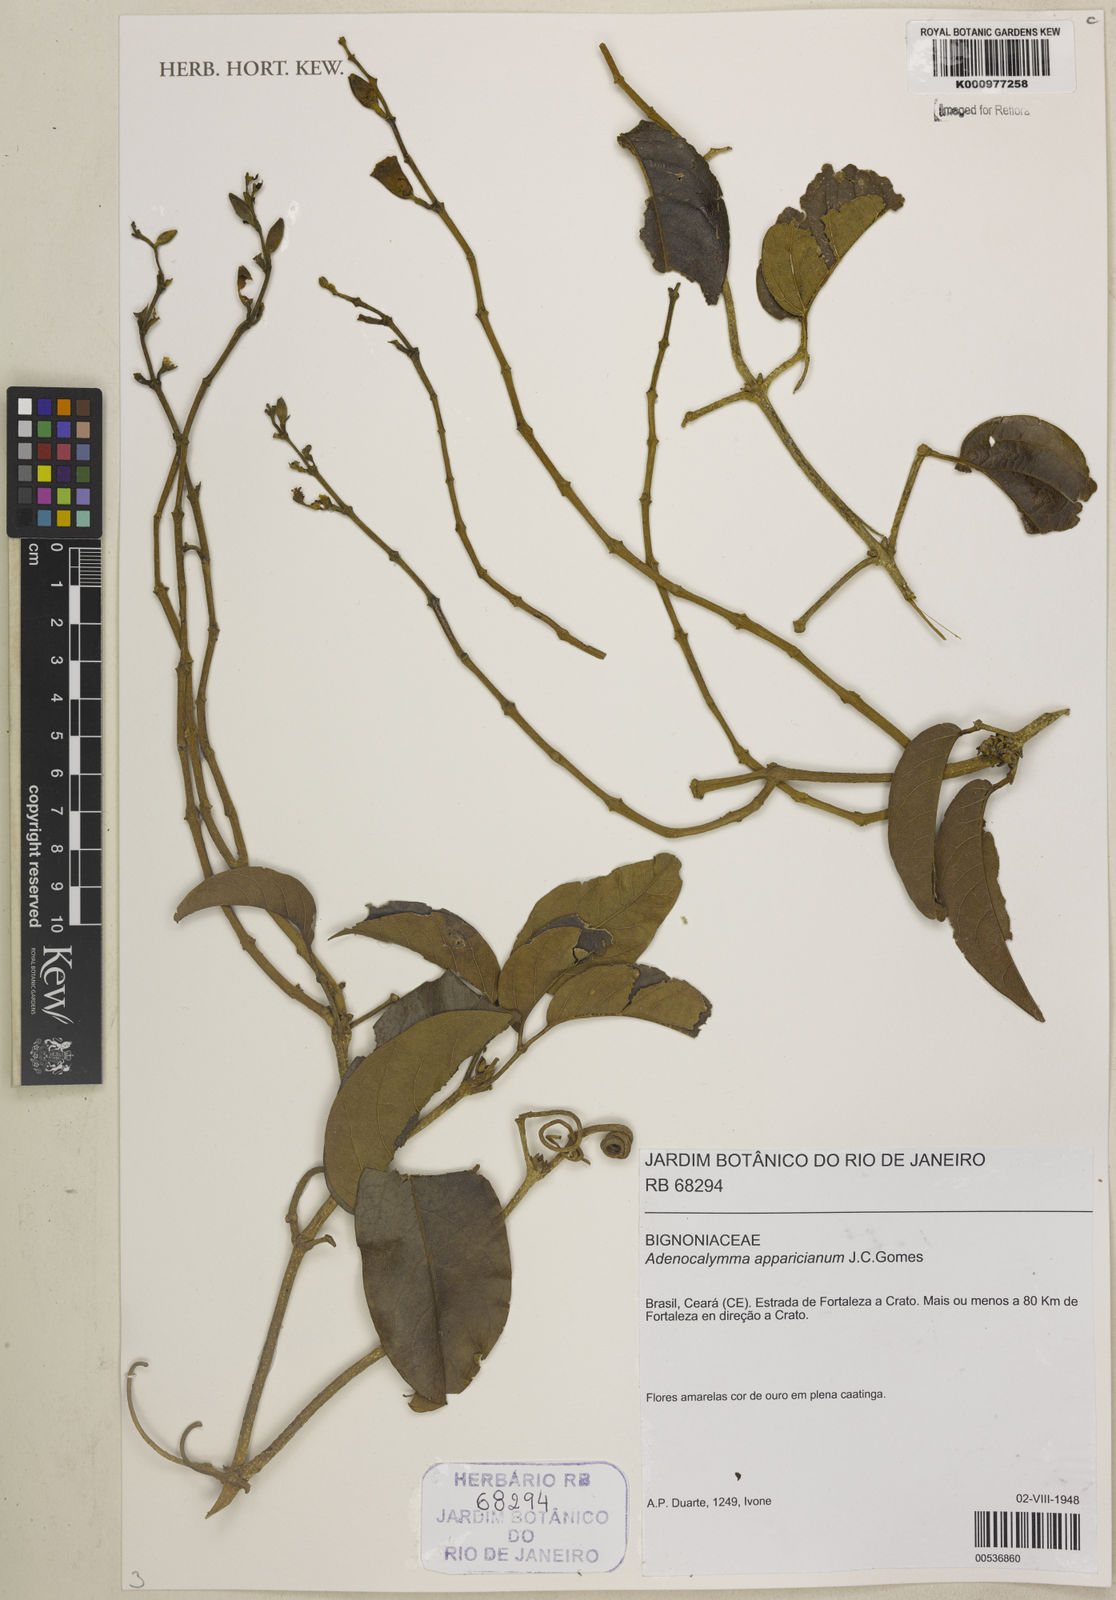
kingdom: Plantae
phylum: Tracheophyta
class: Magnoliopsida
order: Lamiales
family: Bignoniaceae
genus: Adenocalymma
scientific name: Adenocalymma apparicianum
